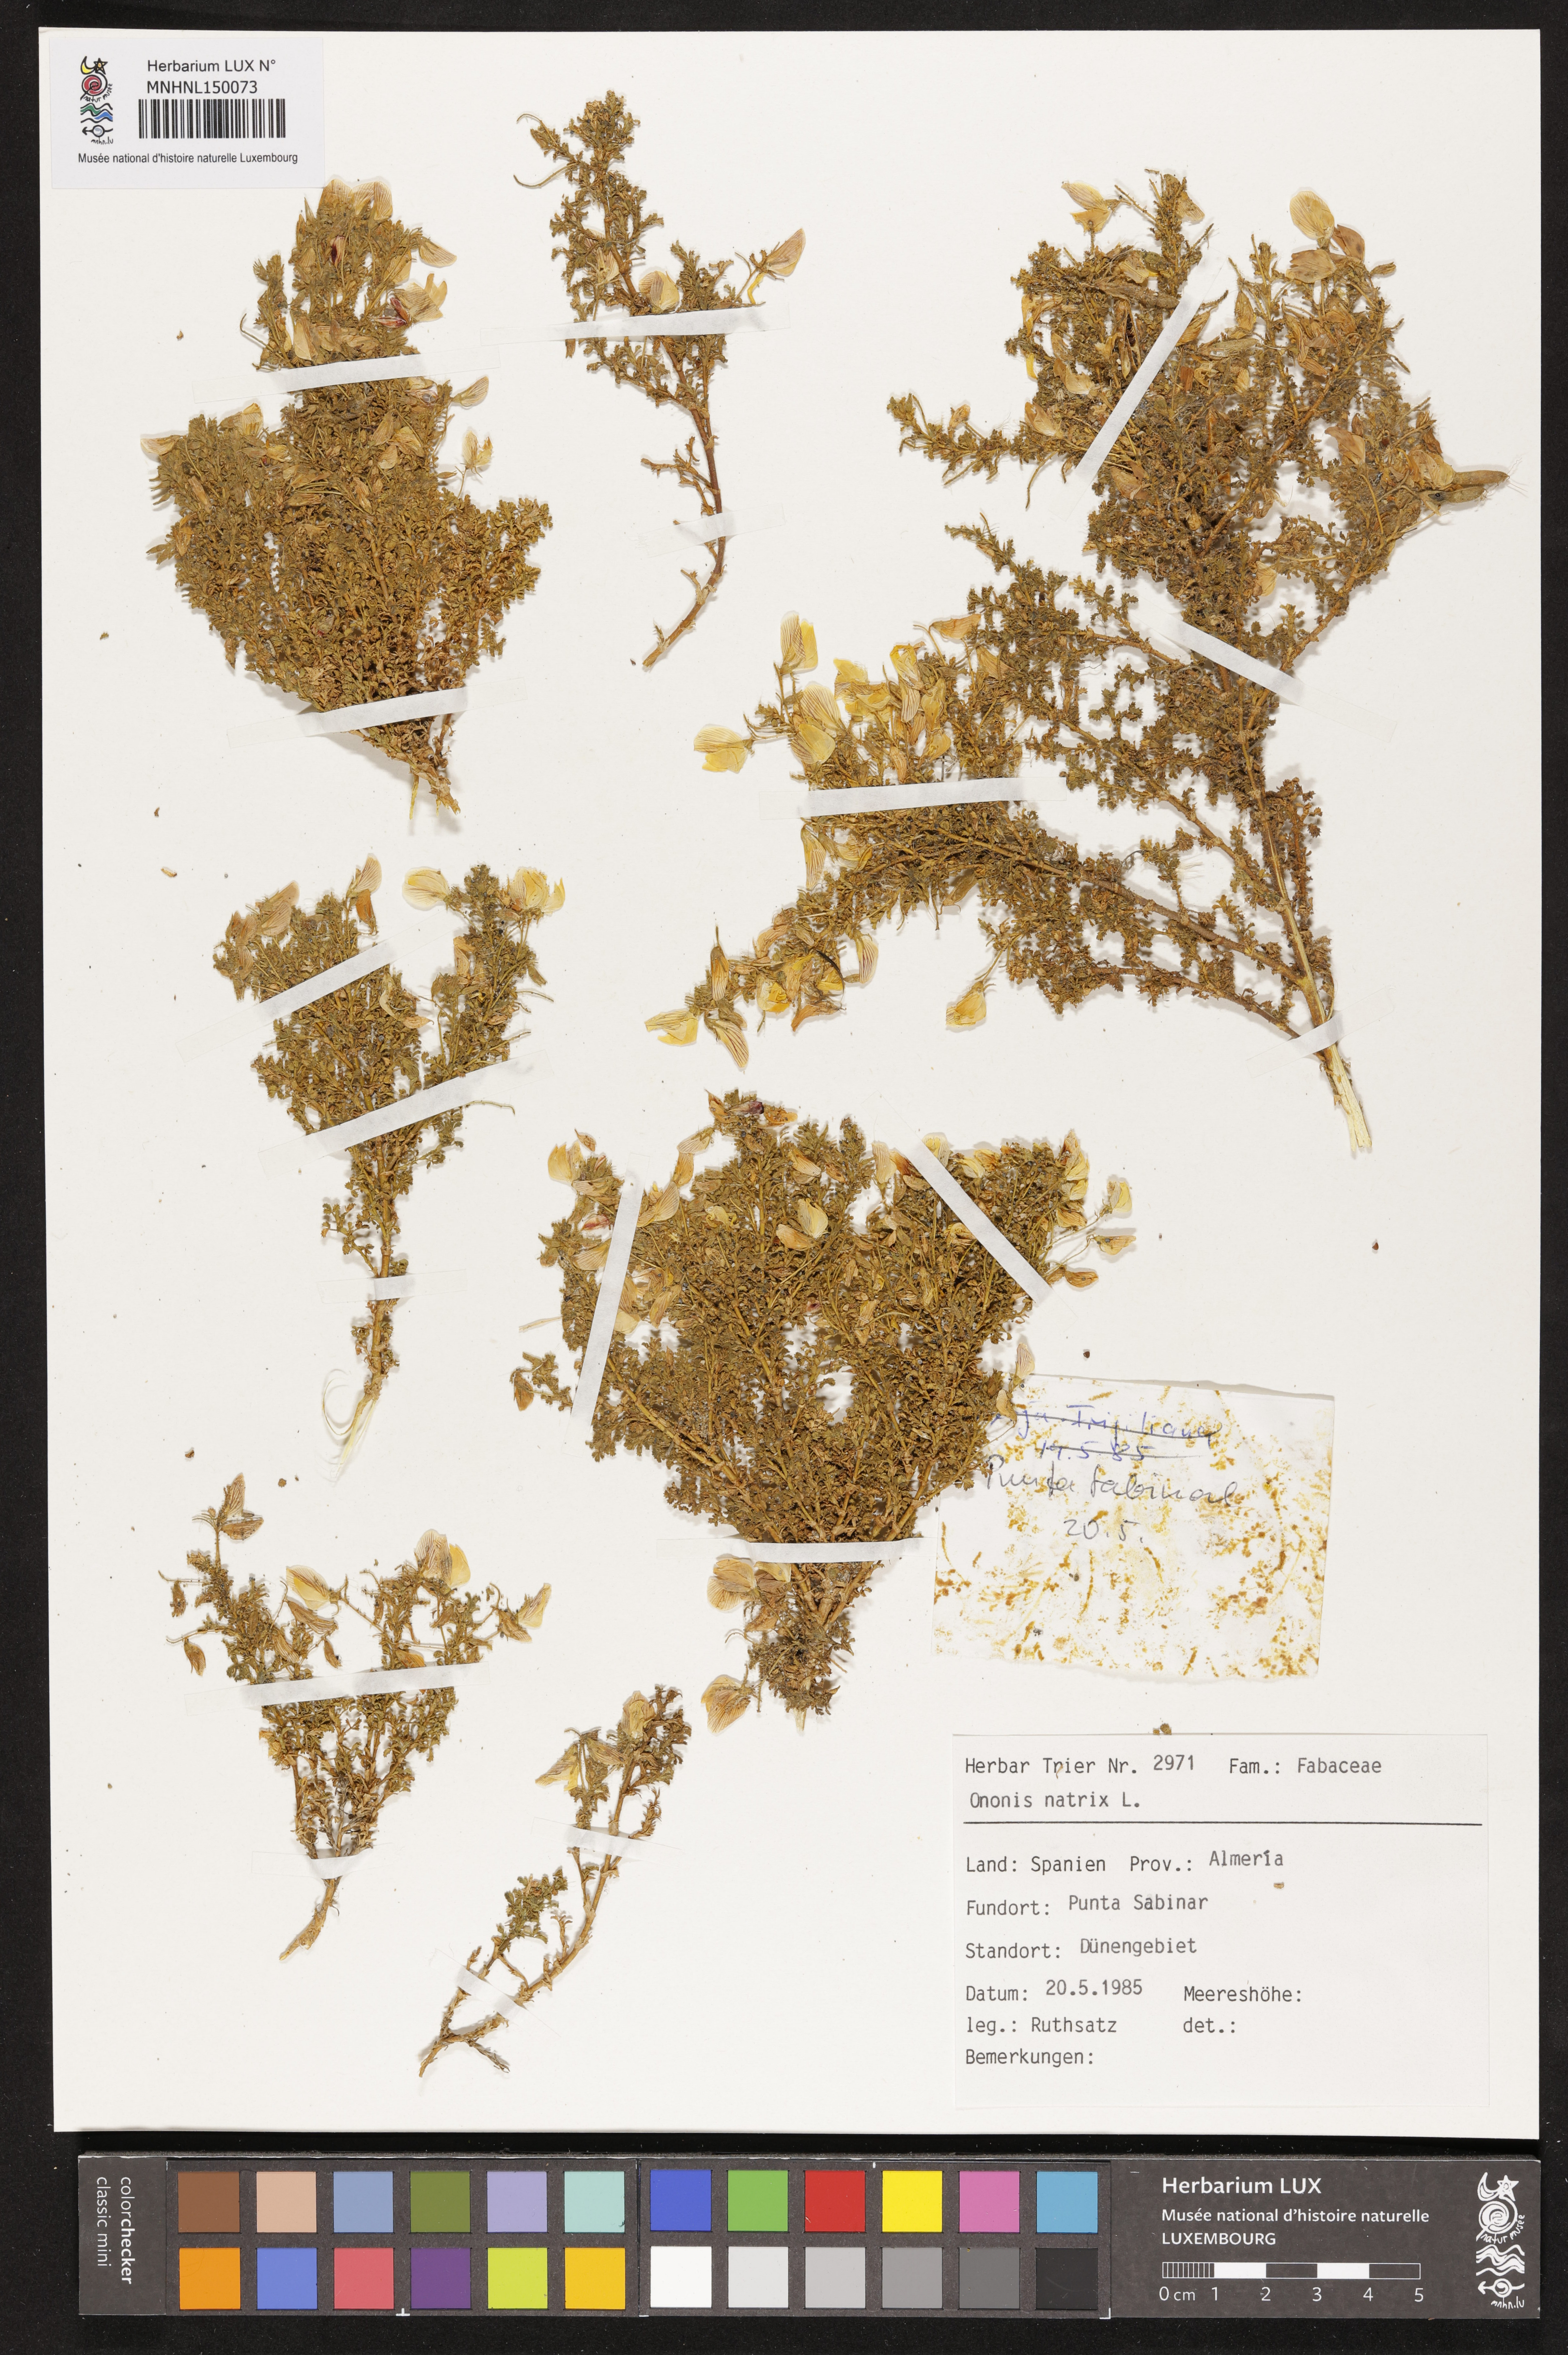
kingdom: Plantae
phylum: Tracheophyta
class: Magnoliopsida
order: Fabales
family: Fabaceae
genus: Ononis
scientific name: Ononis natrix
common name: Yellow restharrow
